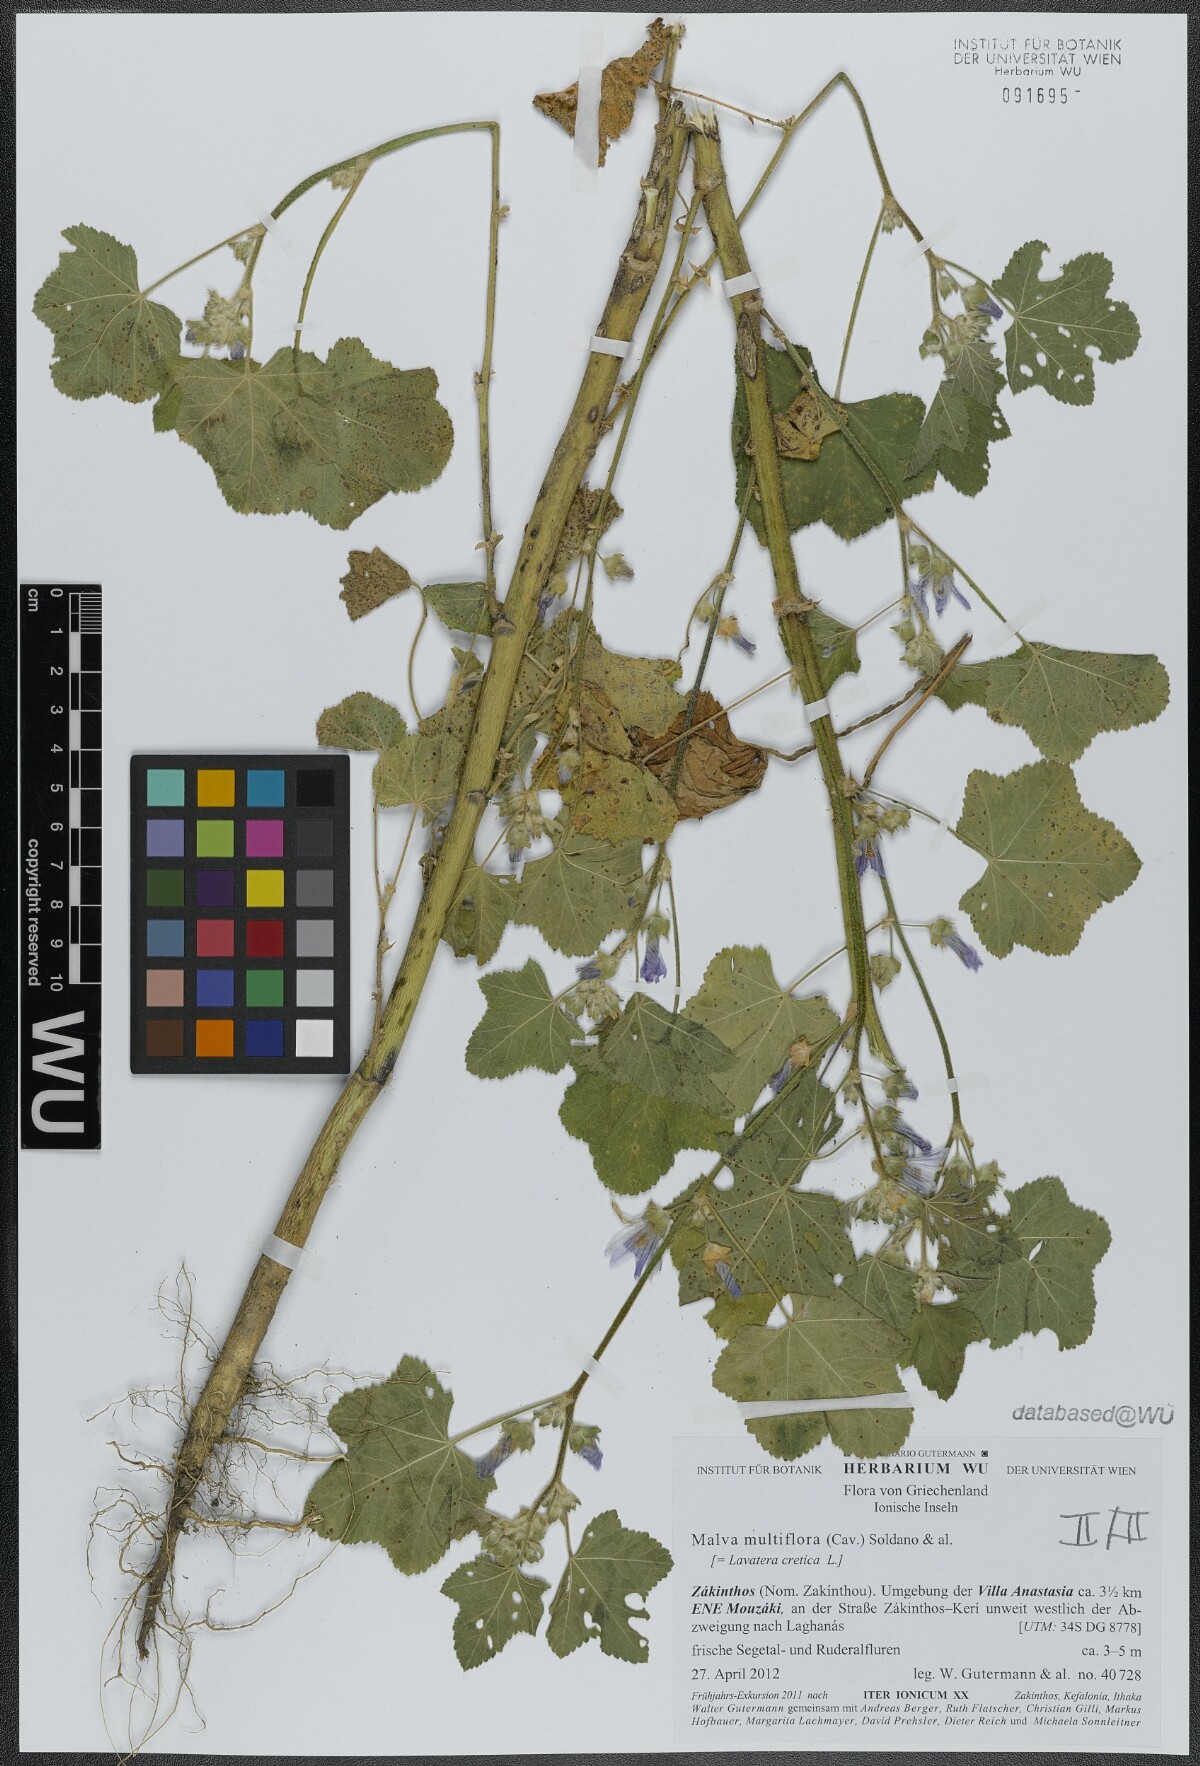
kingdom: Plantae
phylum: Tracheophyta
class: Magnoliopsida
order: Malvales
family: Malvaceae
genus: Malva
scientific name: Malva multiflora
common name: Cheeseweed
